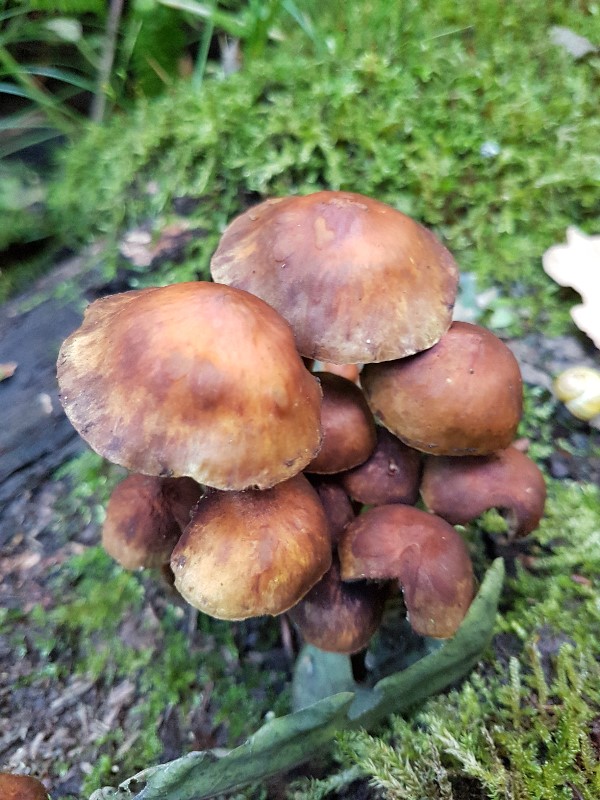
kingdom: Fungi
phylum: Basidiomycota
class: Agaricomycetes
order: Agaricales
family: Mycenaceae
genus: Mycena
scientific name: Mycena epipterygia
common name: gulstokket huesvamp
